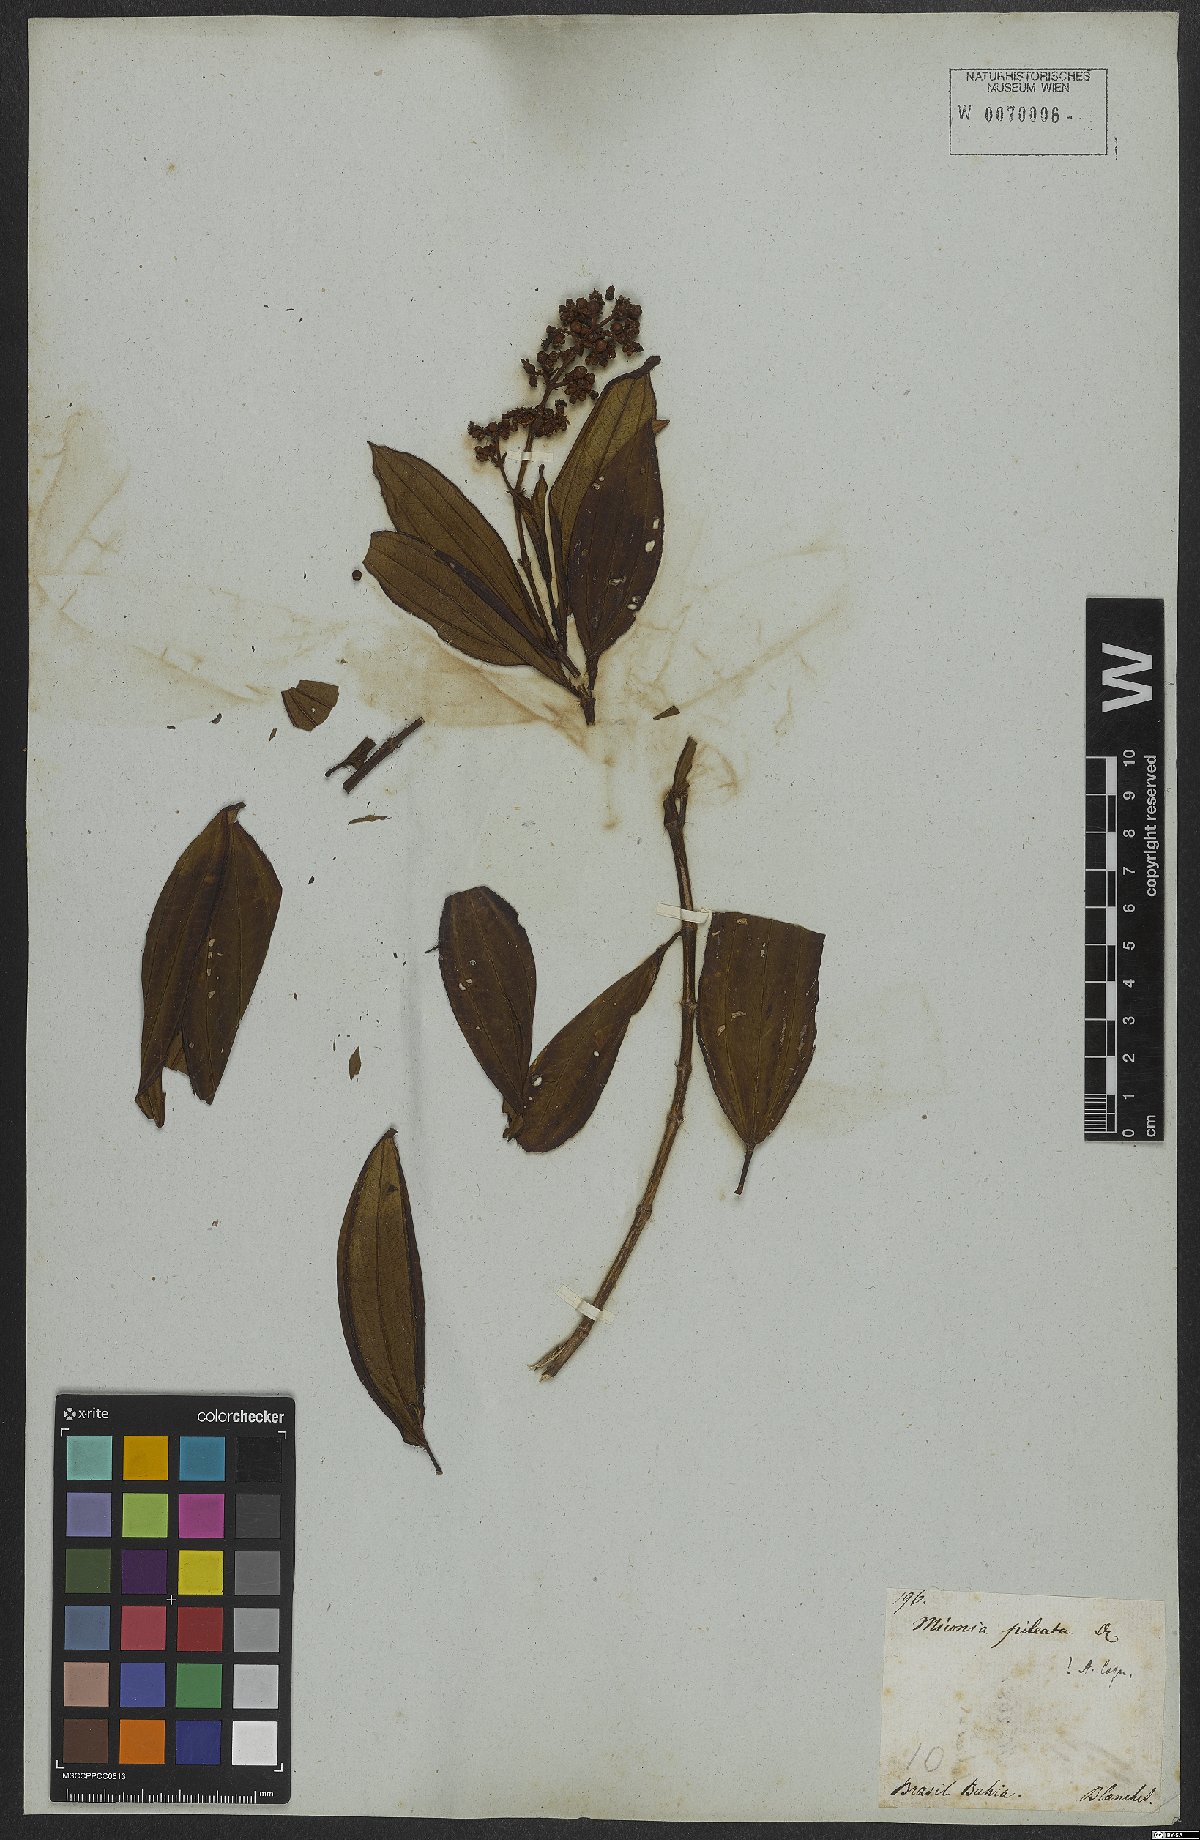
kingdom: Plantae
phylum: Tracheophyta
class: Magnoliopsida
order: Myrtales
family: Melastomataceae
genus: Miconia
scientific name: Miconia pileata
